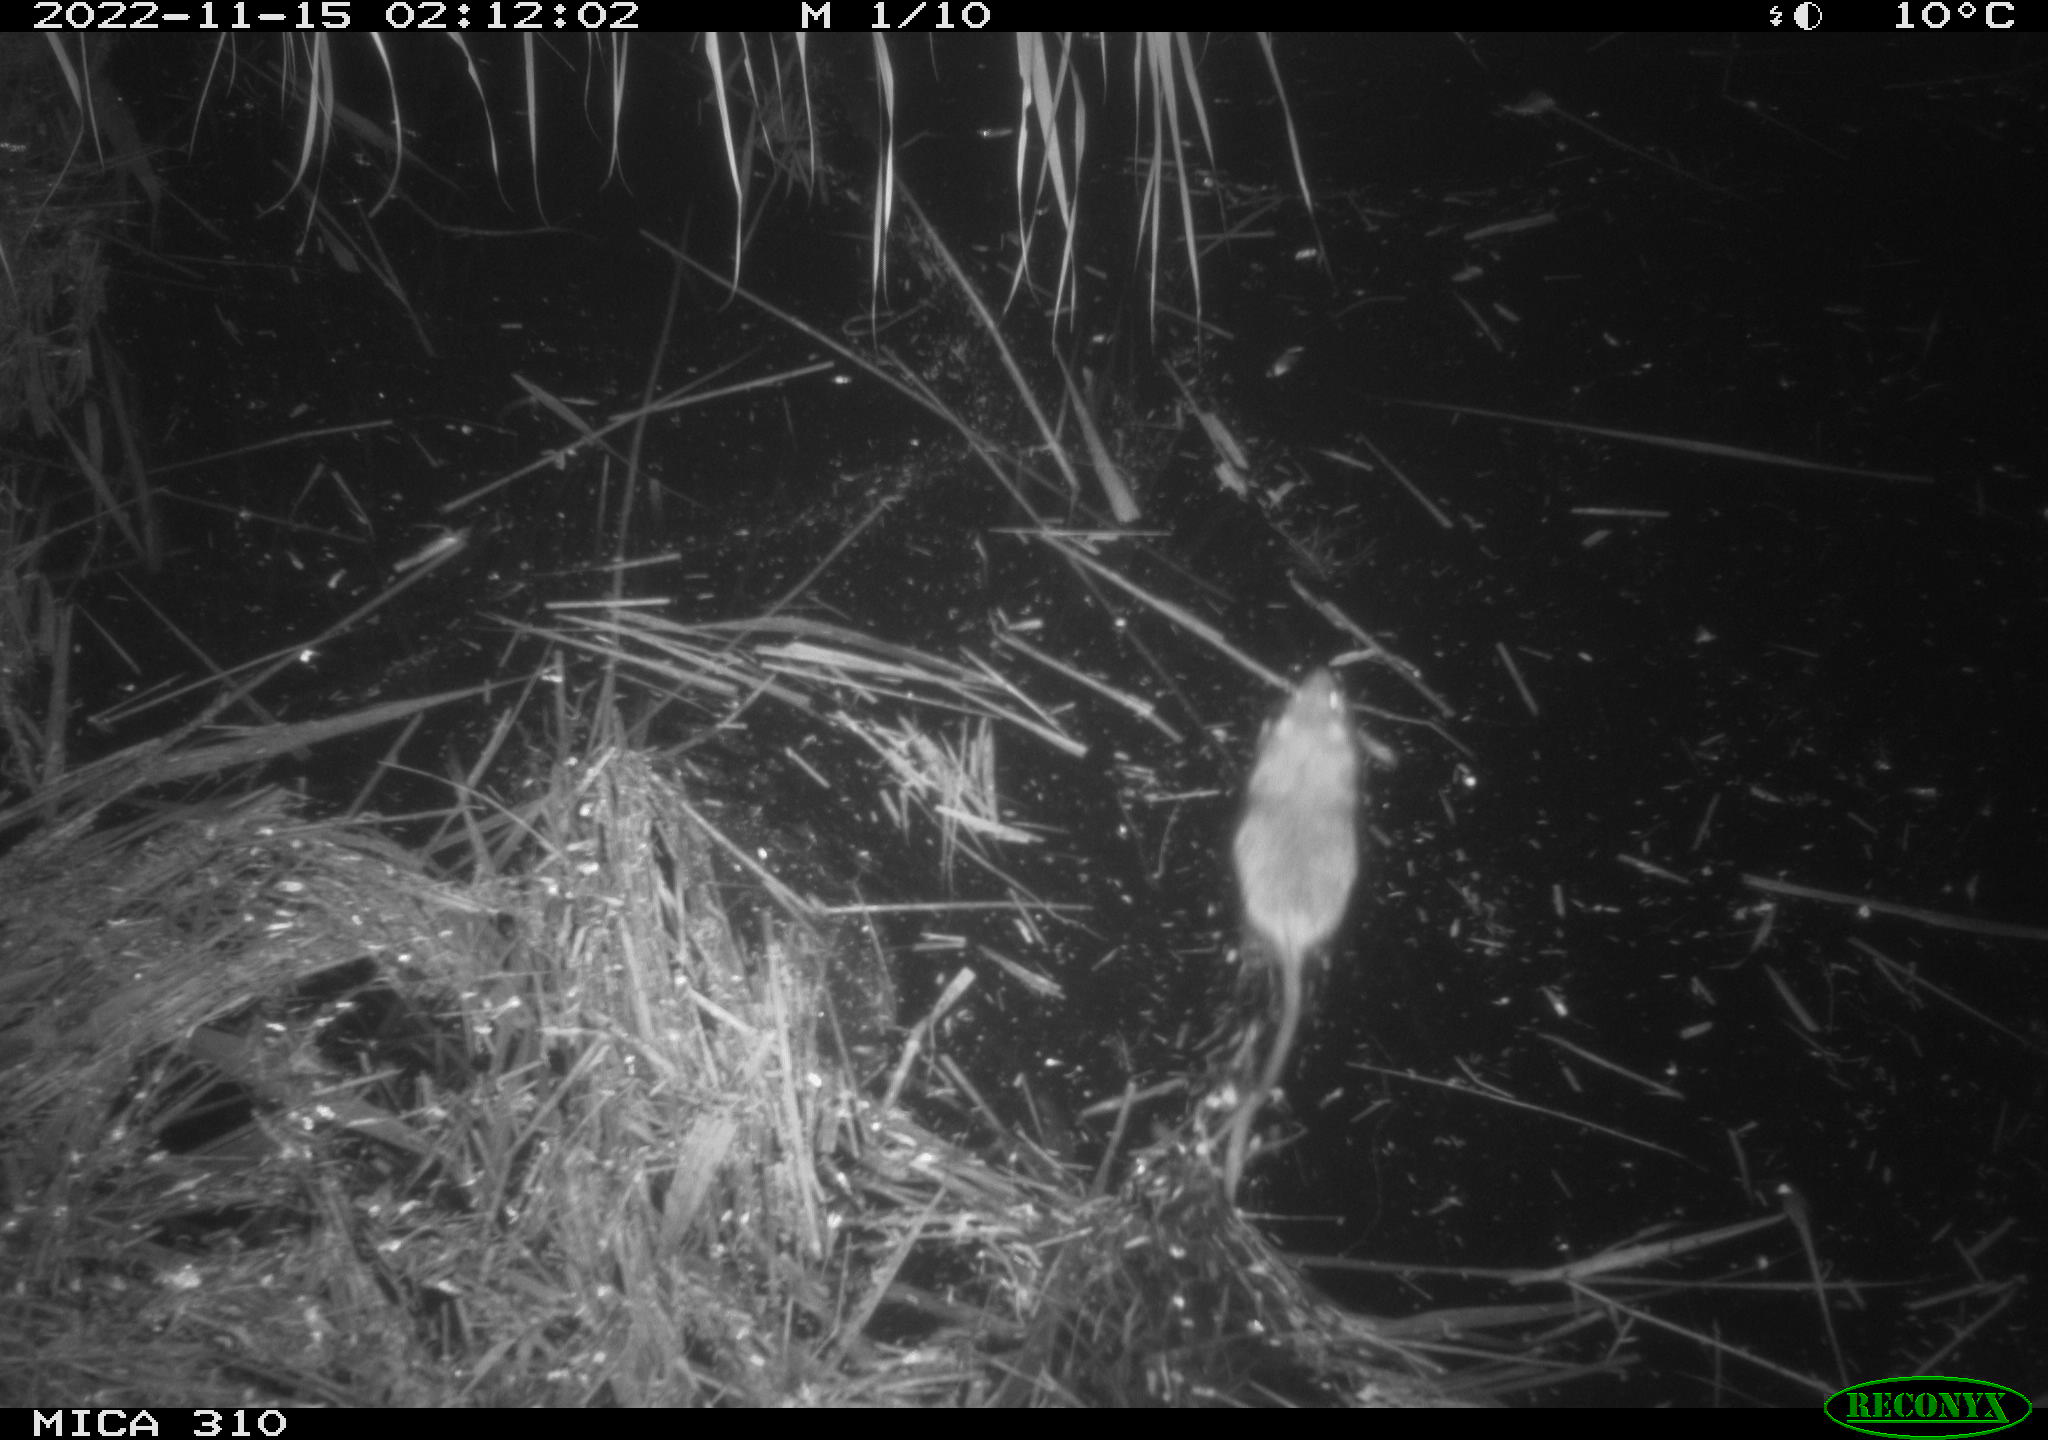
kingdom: Animalia
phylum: Chordata
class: Mammalia
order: Rodentia
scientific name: Rodentia
